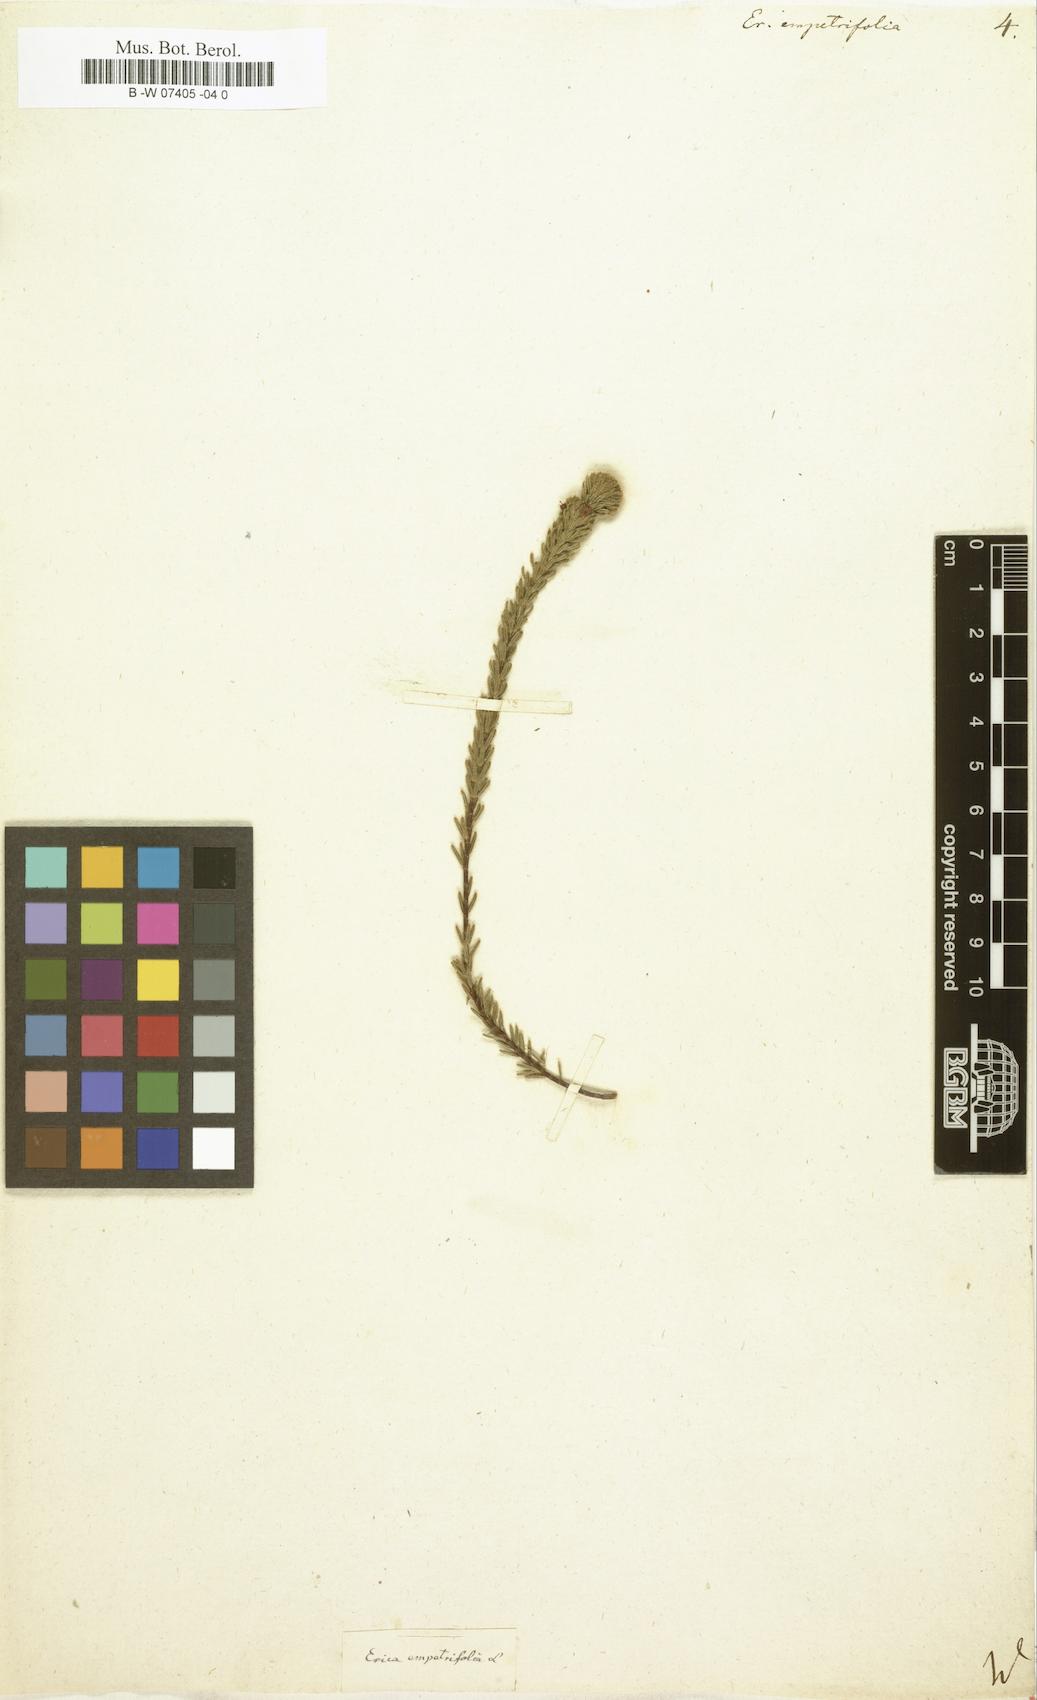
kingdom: Plantae
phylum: Tracheophyta
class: Magnoliopsida
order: Ericales
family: Ericaceae
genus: Erica
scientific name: Erica empetrina
